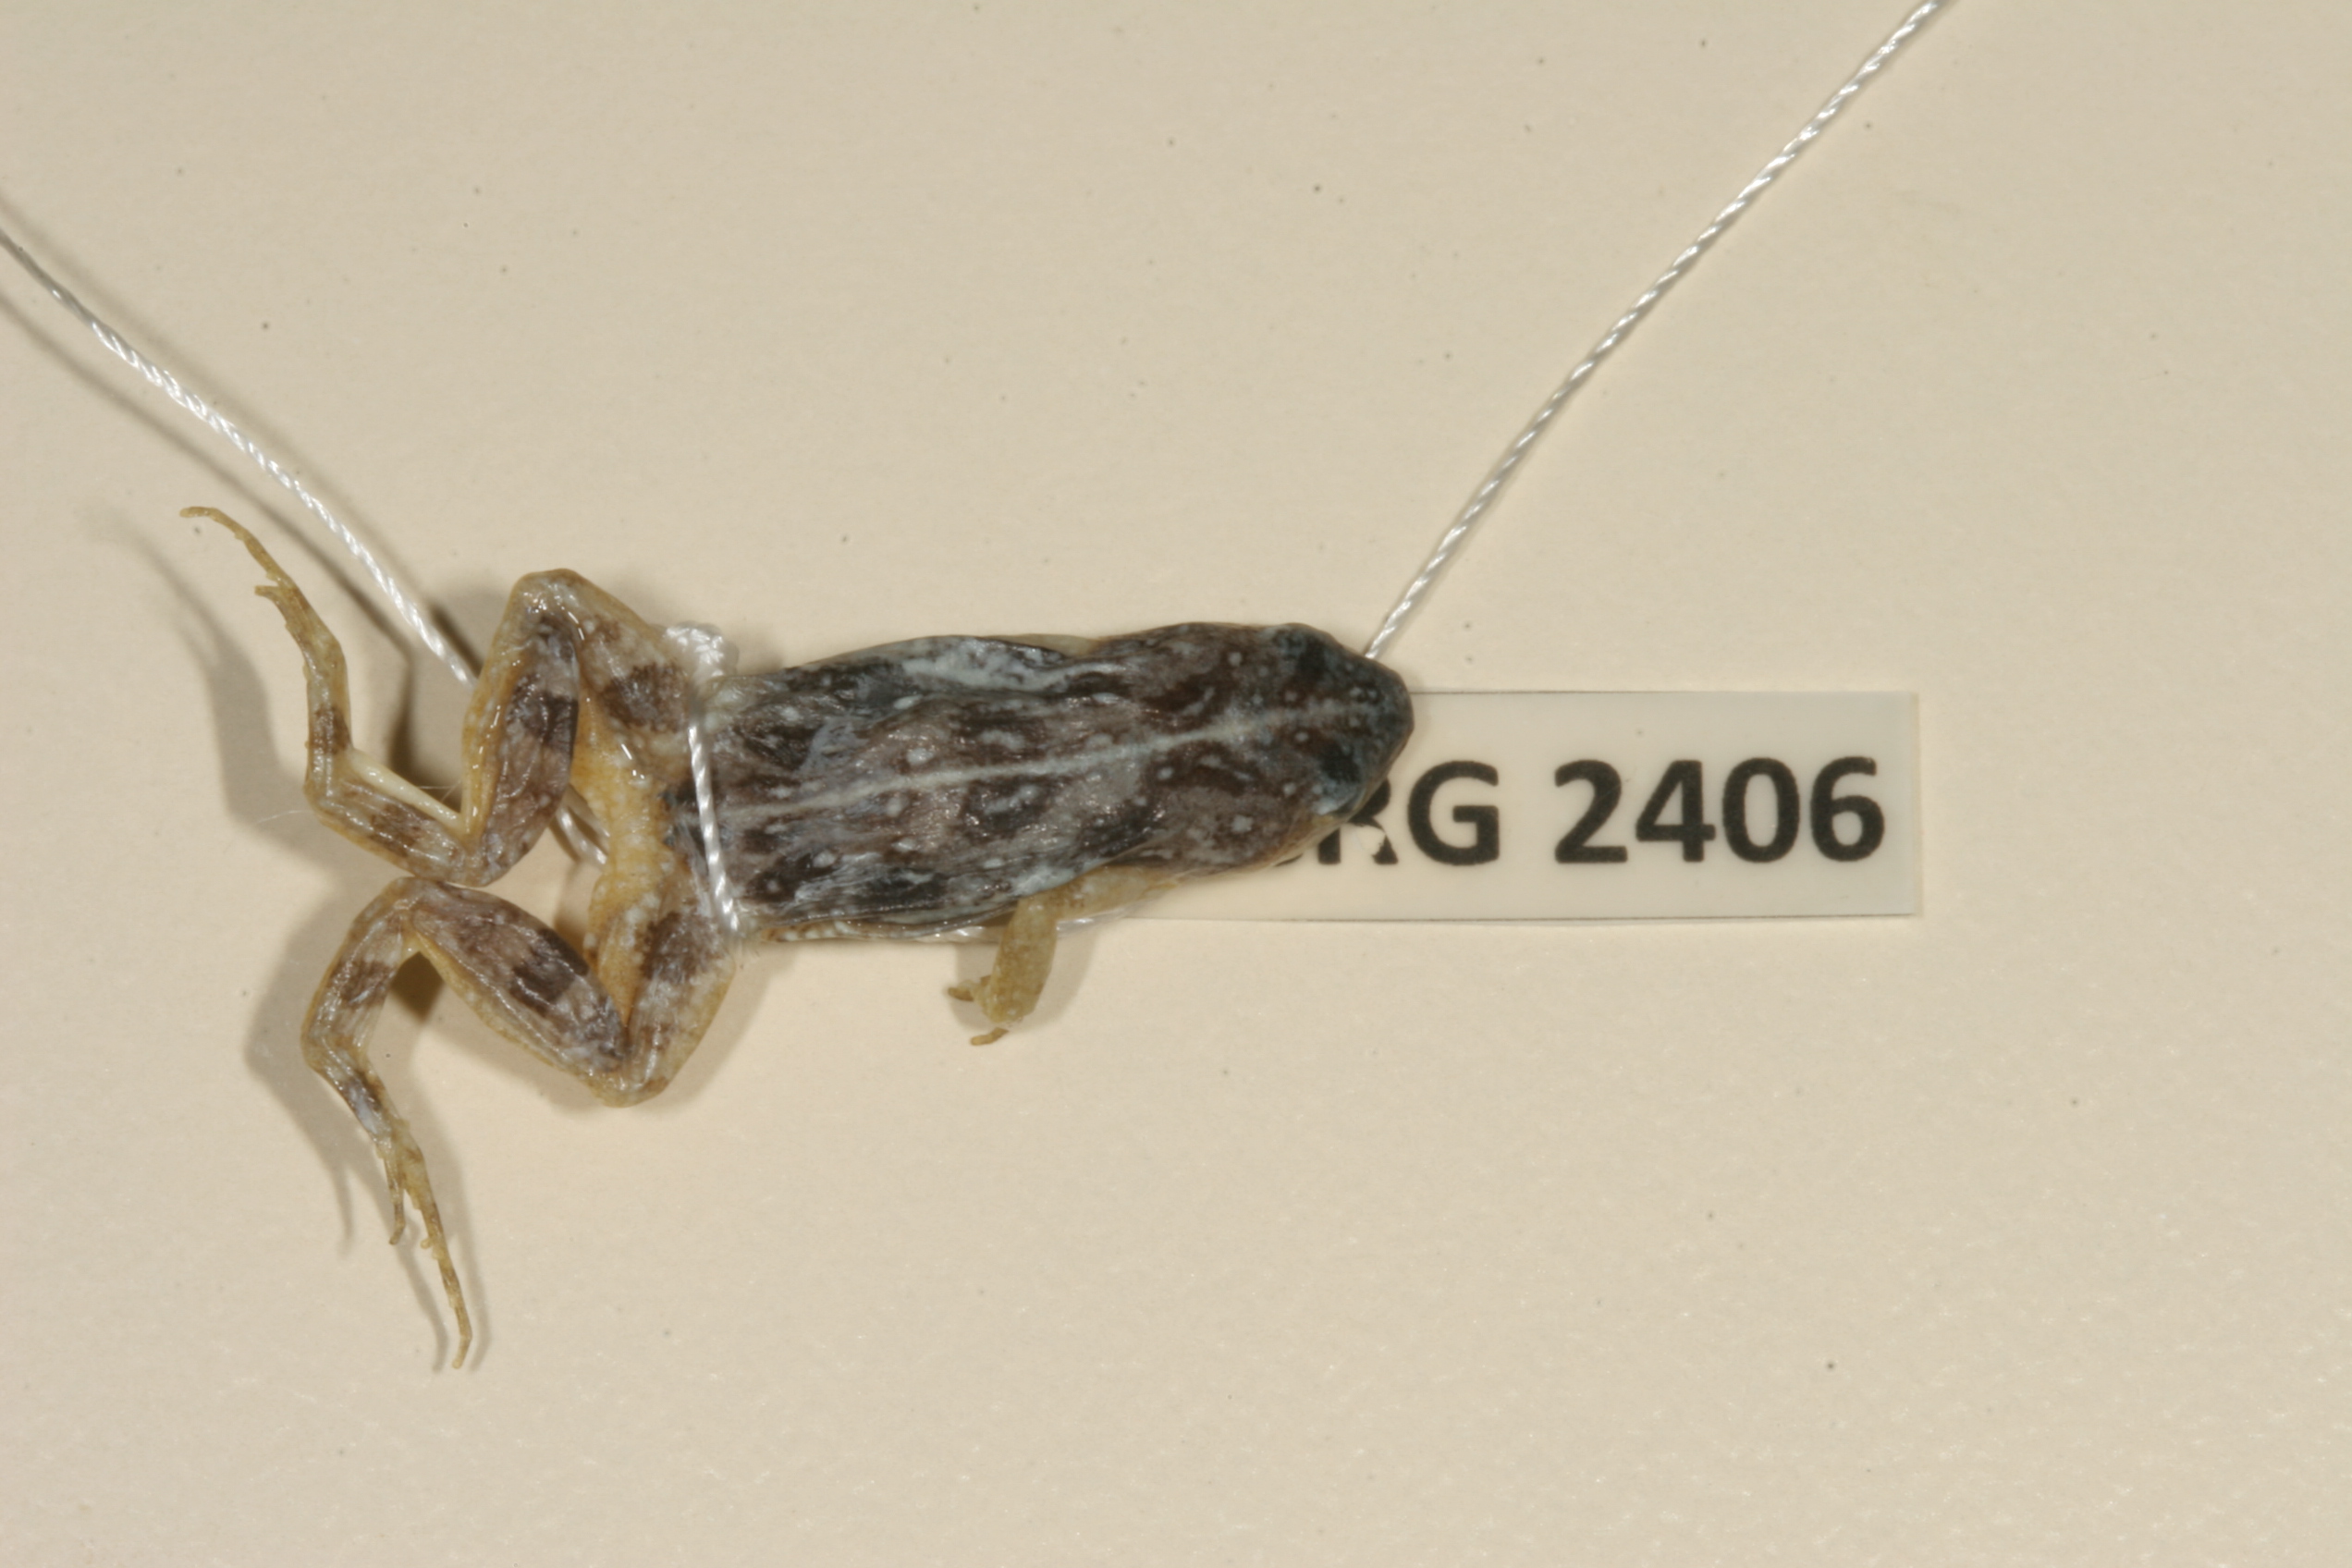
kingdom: Animalia
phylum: Chordata
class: Amphibia
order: Anura
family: Pyxicephalidae
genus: Cacosternum
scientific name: Cacosternum boettgeri
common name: Boettger's frog
